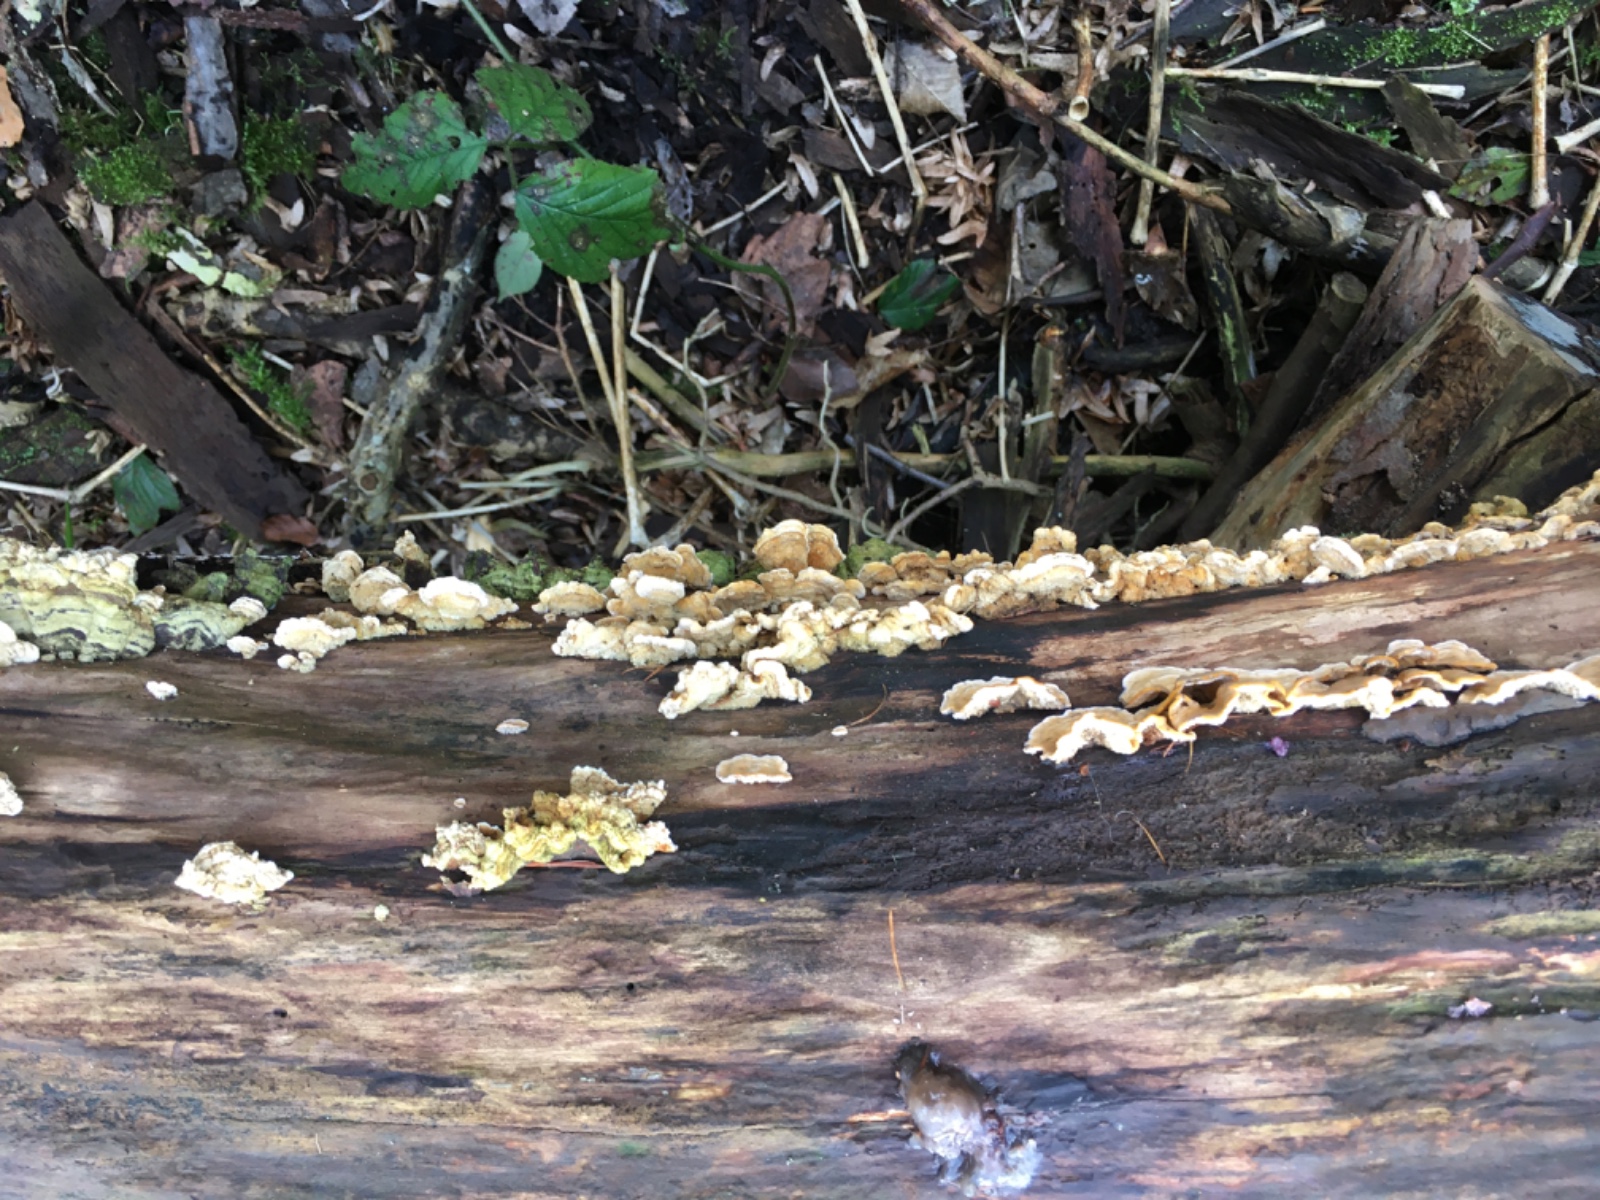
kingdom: Fungi
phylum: Basidiomycota
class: Agaricomycetes
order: Russulales
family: Stereaceae
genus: Stereum
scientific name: Stereum hirsutum
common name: håret lædersvamp
